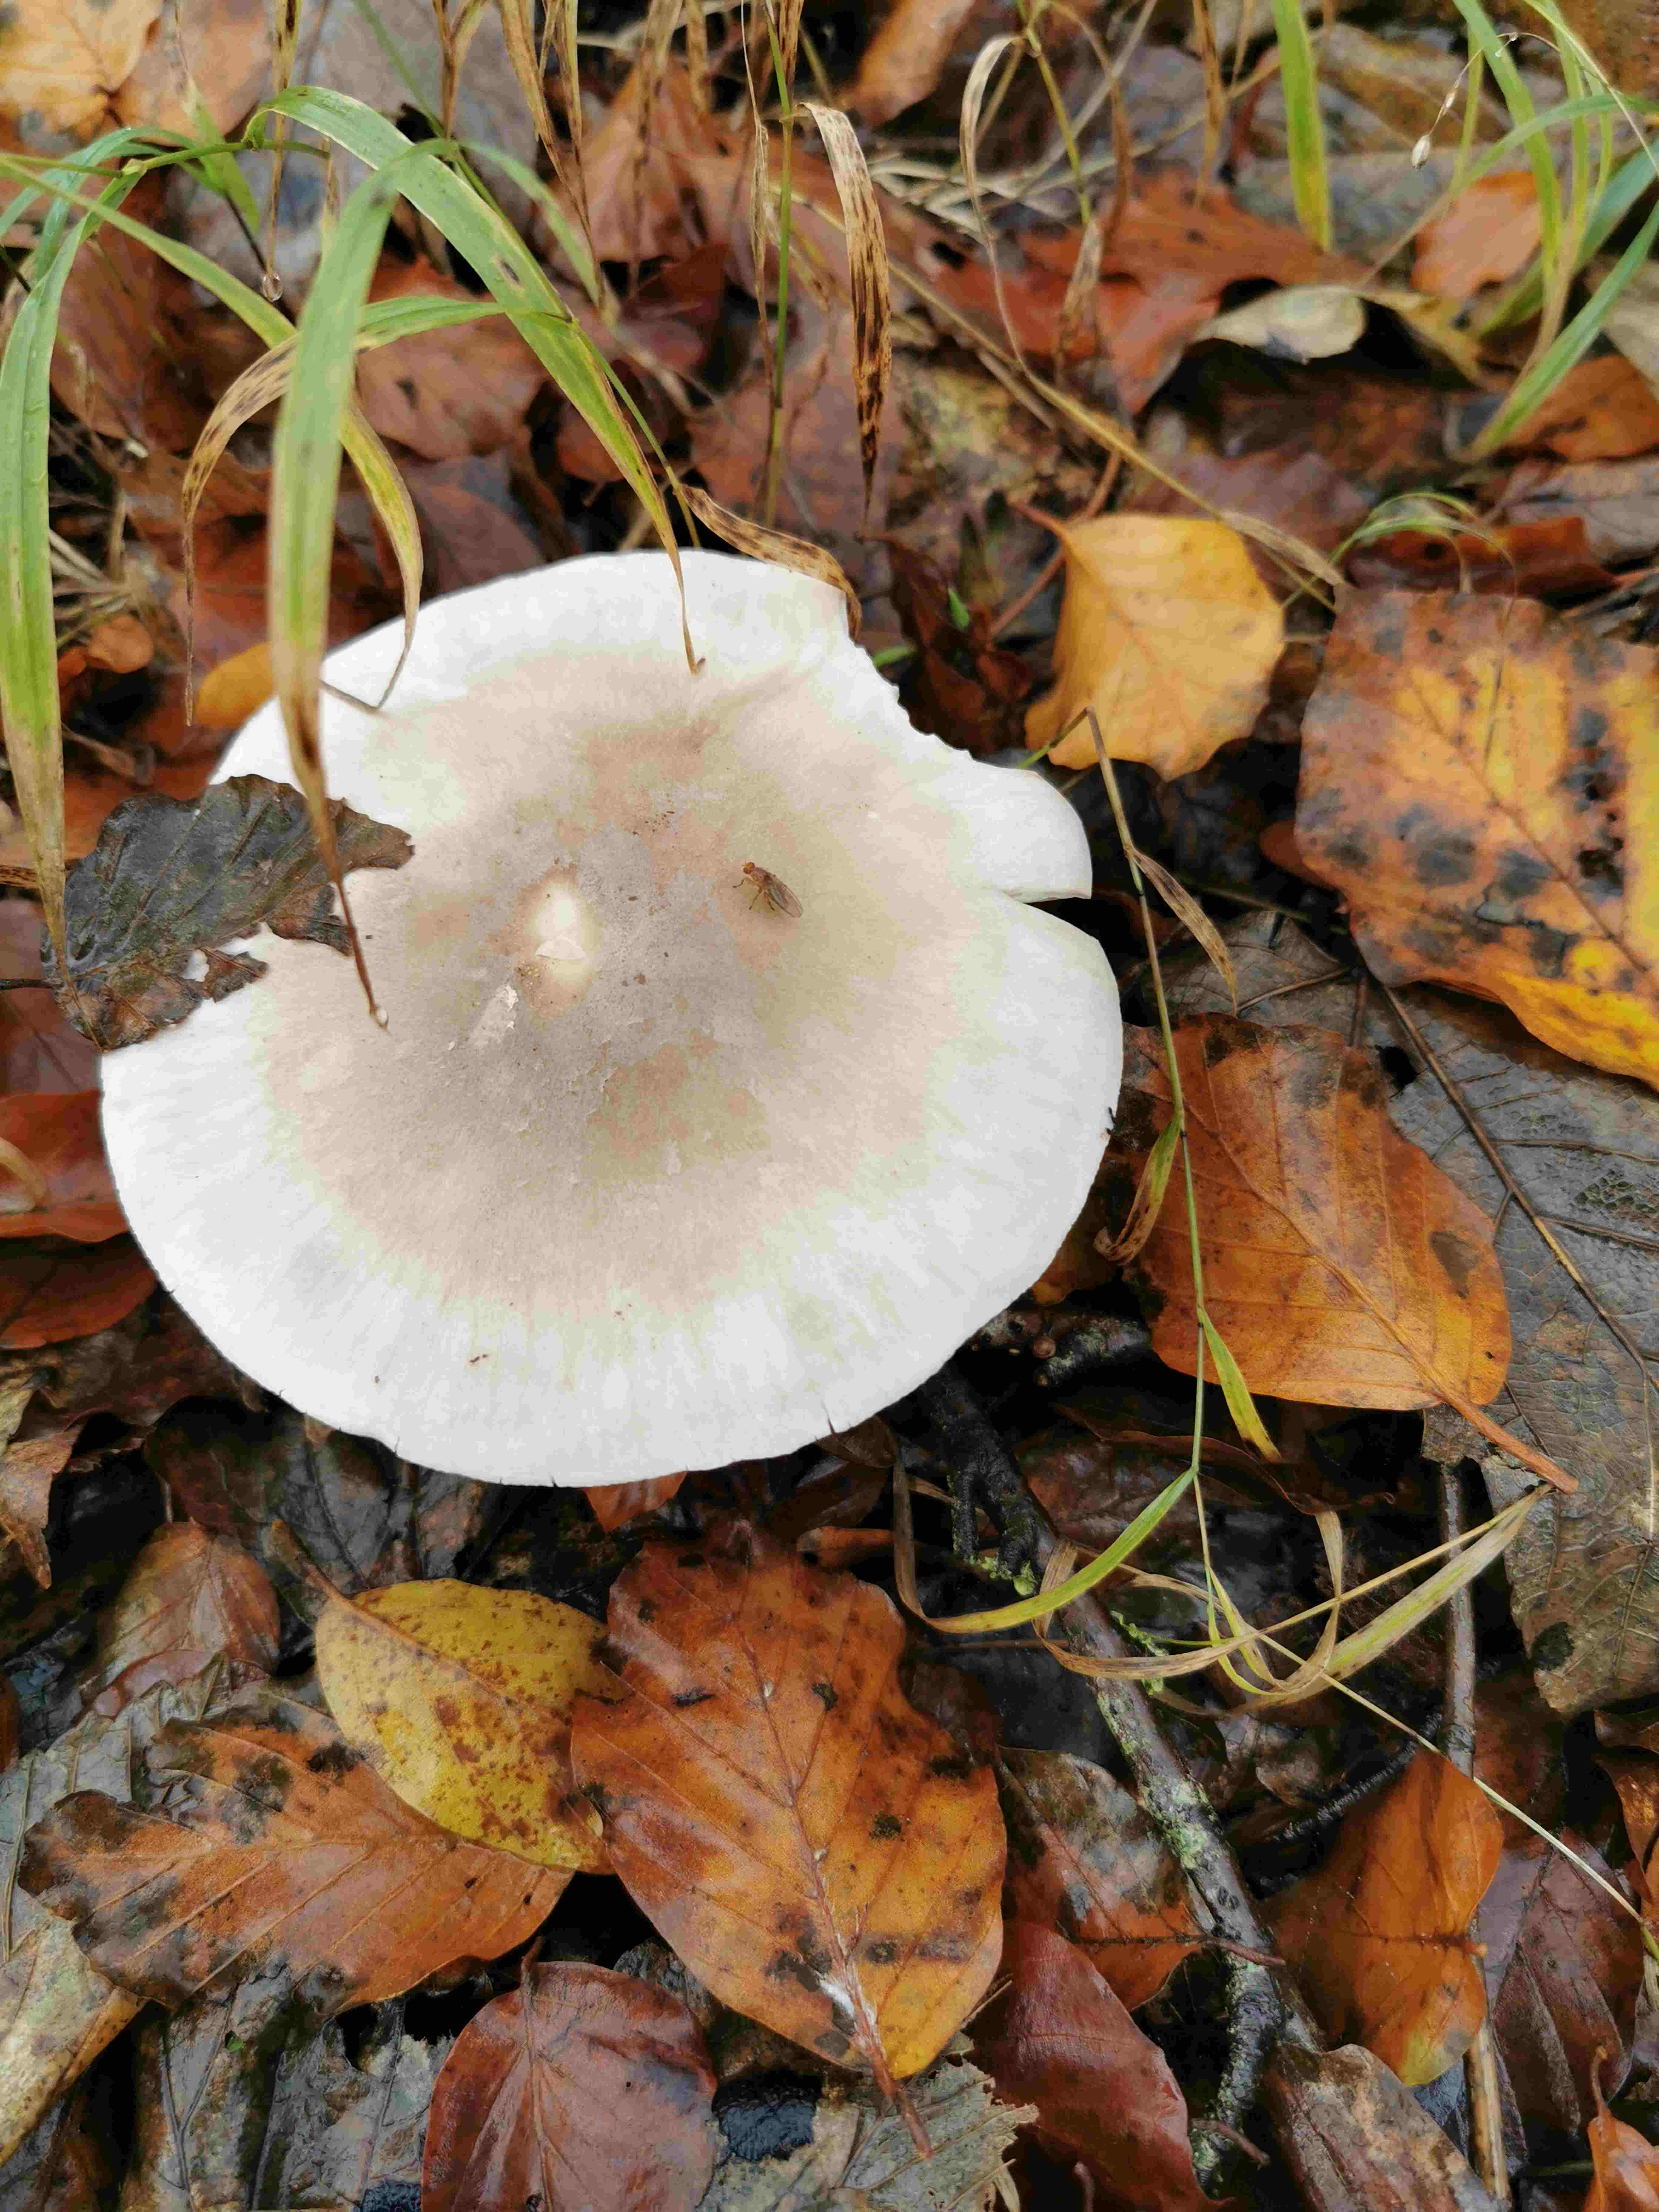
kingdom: Fungi
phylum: Basidiomycota
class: Agaricomycetes
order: Agaricales
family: Tricholomataceae
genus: Clitocybe
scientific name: Clitocybe nebularis
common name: tåge-tragthat
